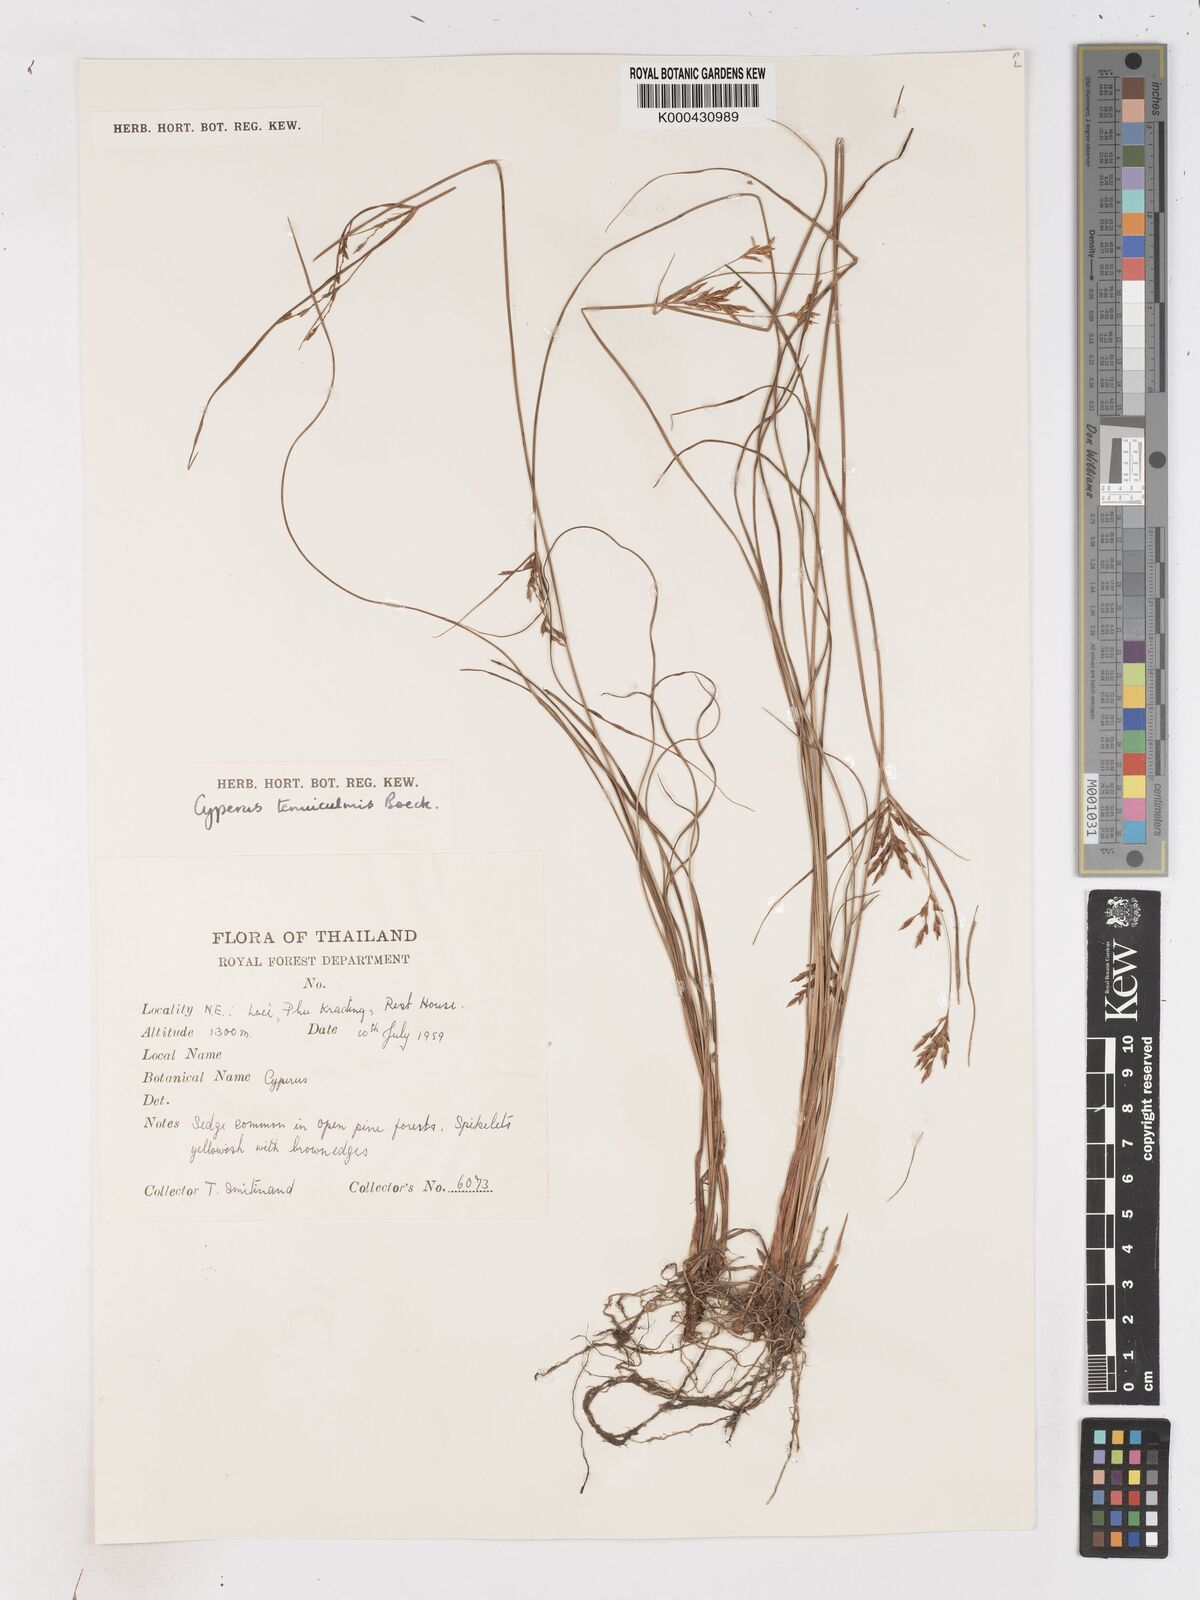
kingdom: Plantae
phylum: Tracheophyta
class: Liliopsida
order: Poales
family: Cyperaceae
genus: Cyperus
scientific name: Cyperus tenuiculmis
